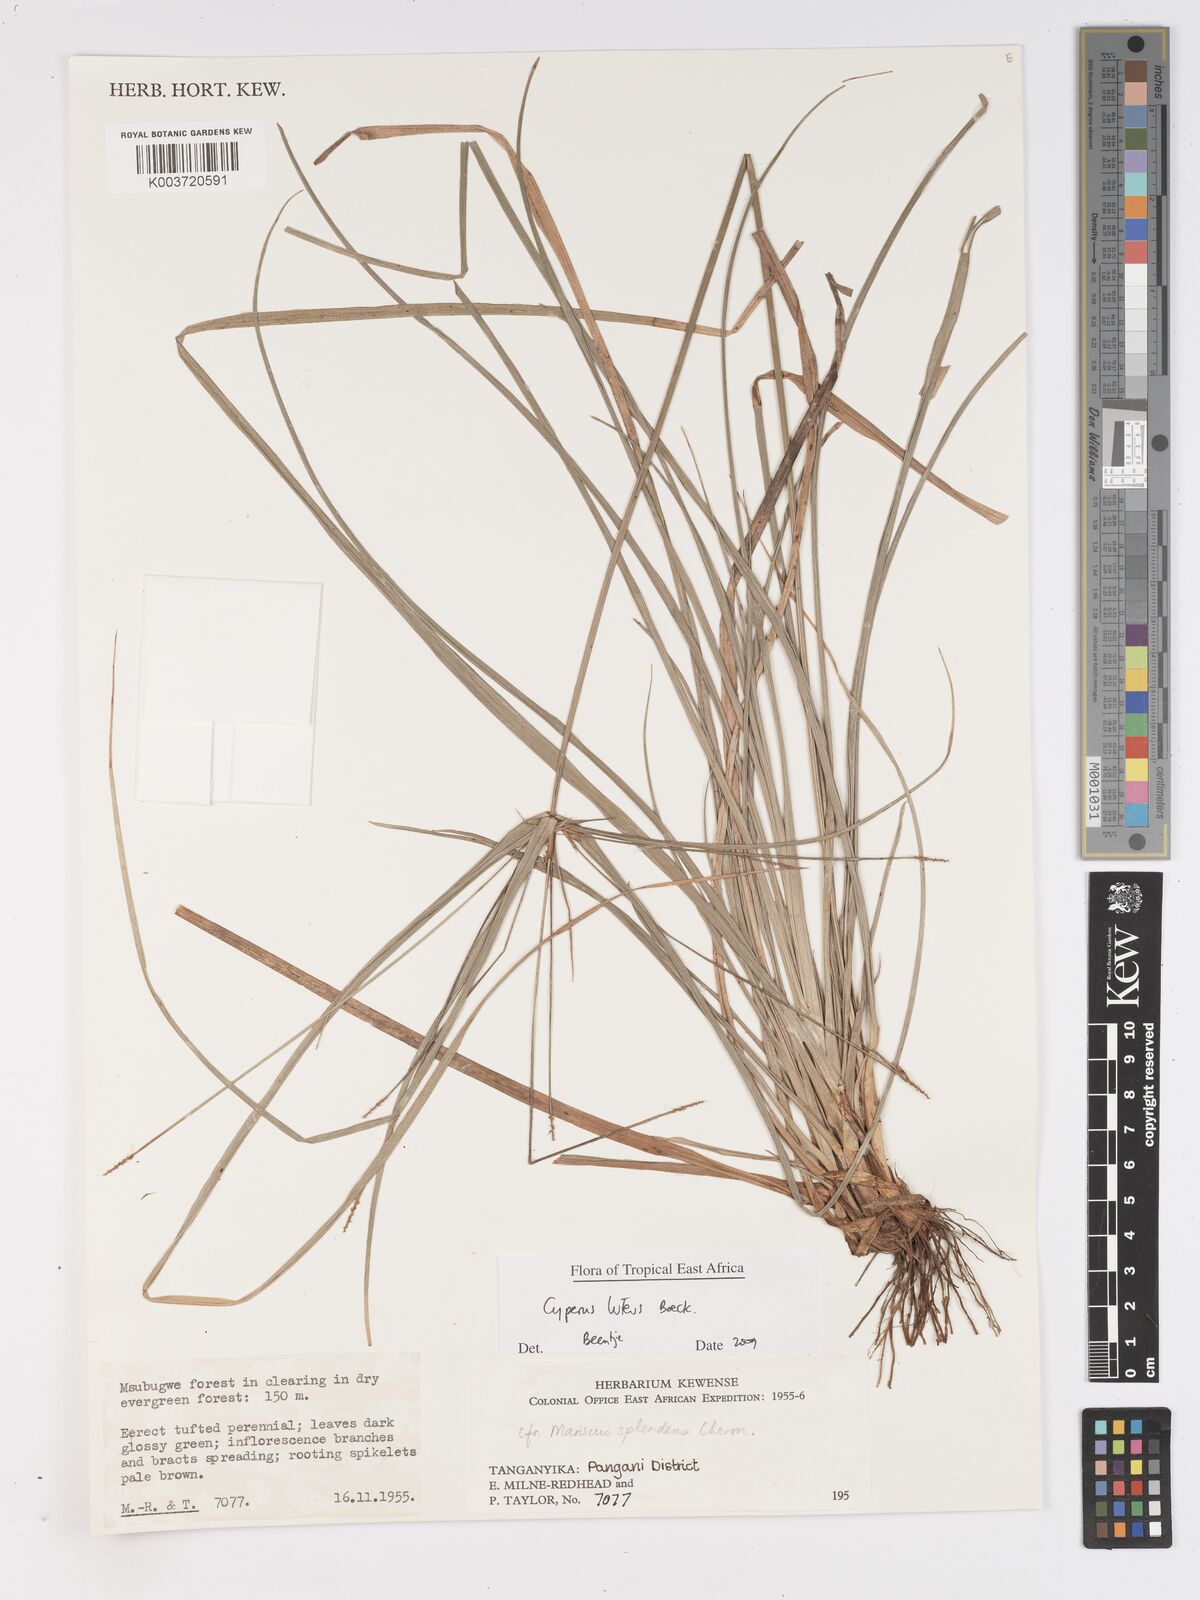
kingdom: Plantae
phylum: Tracheophyta
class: Liliopsida
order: Poales
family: Cyperaceae
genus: Cyperus
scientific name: Cyperus luteus
